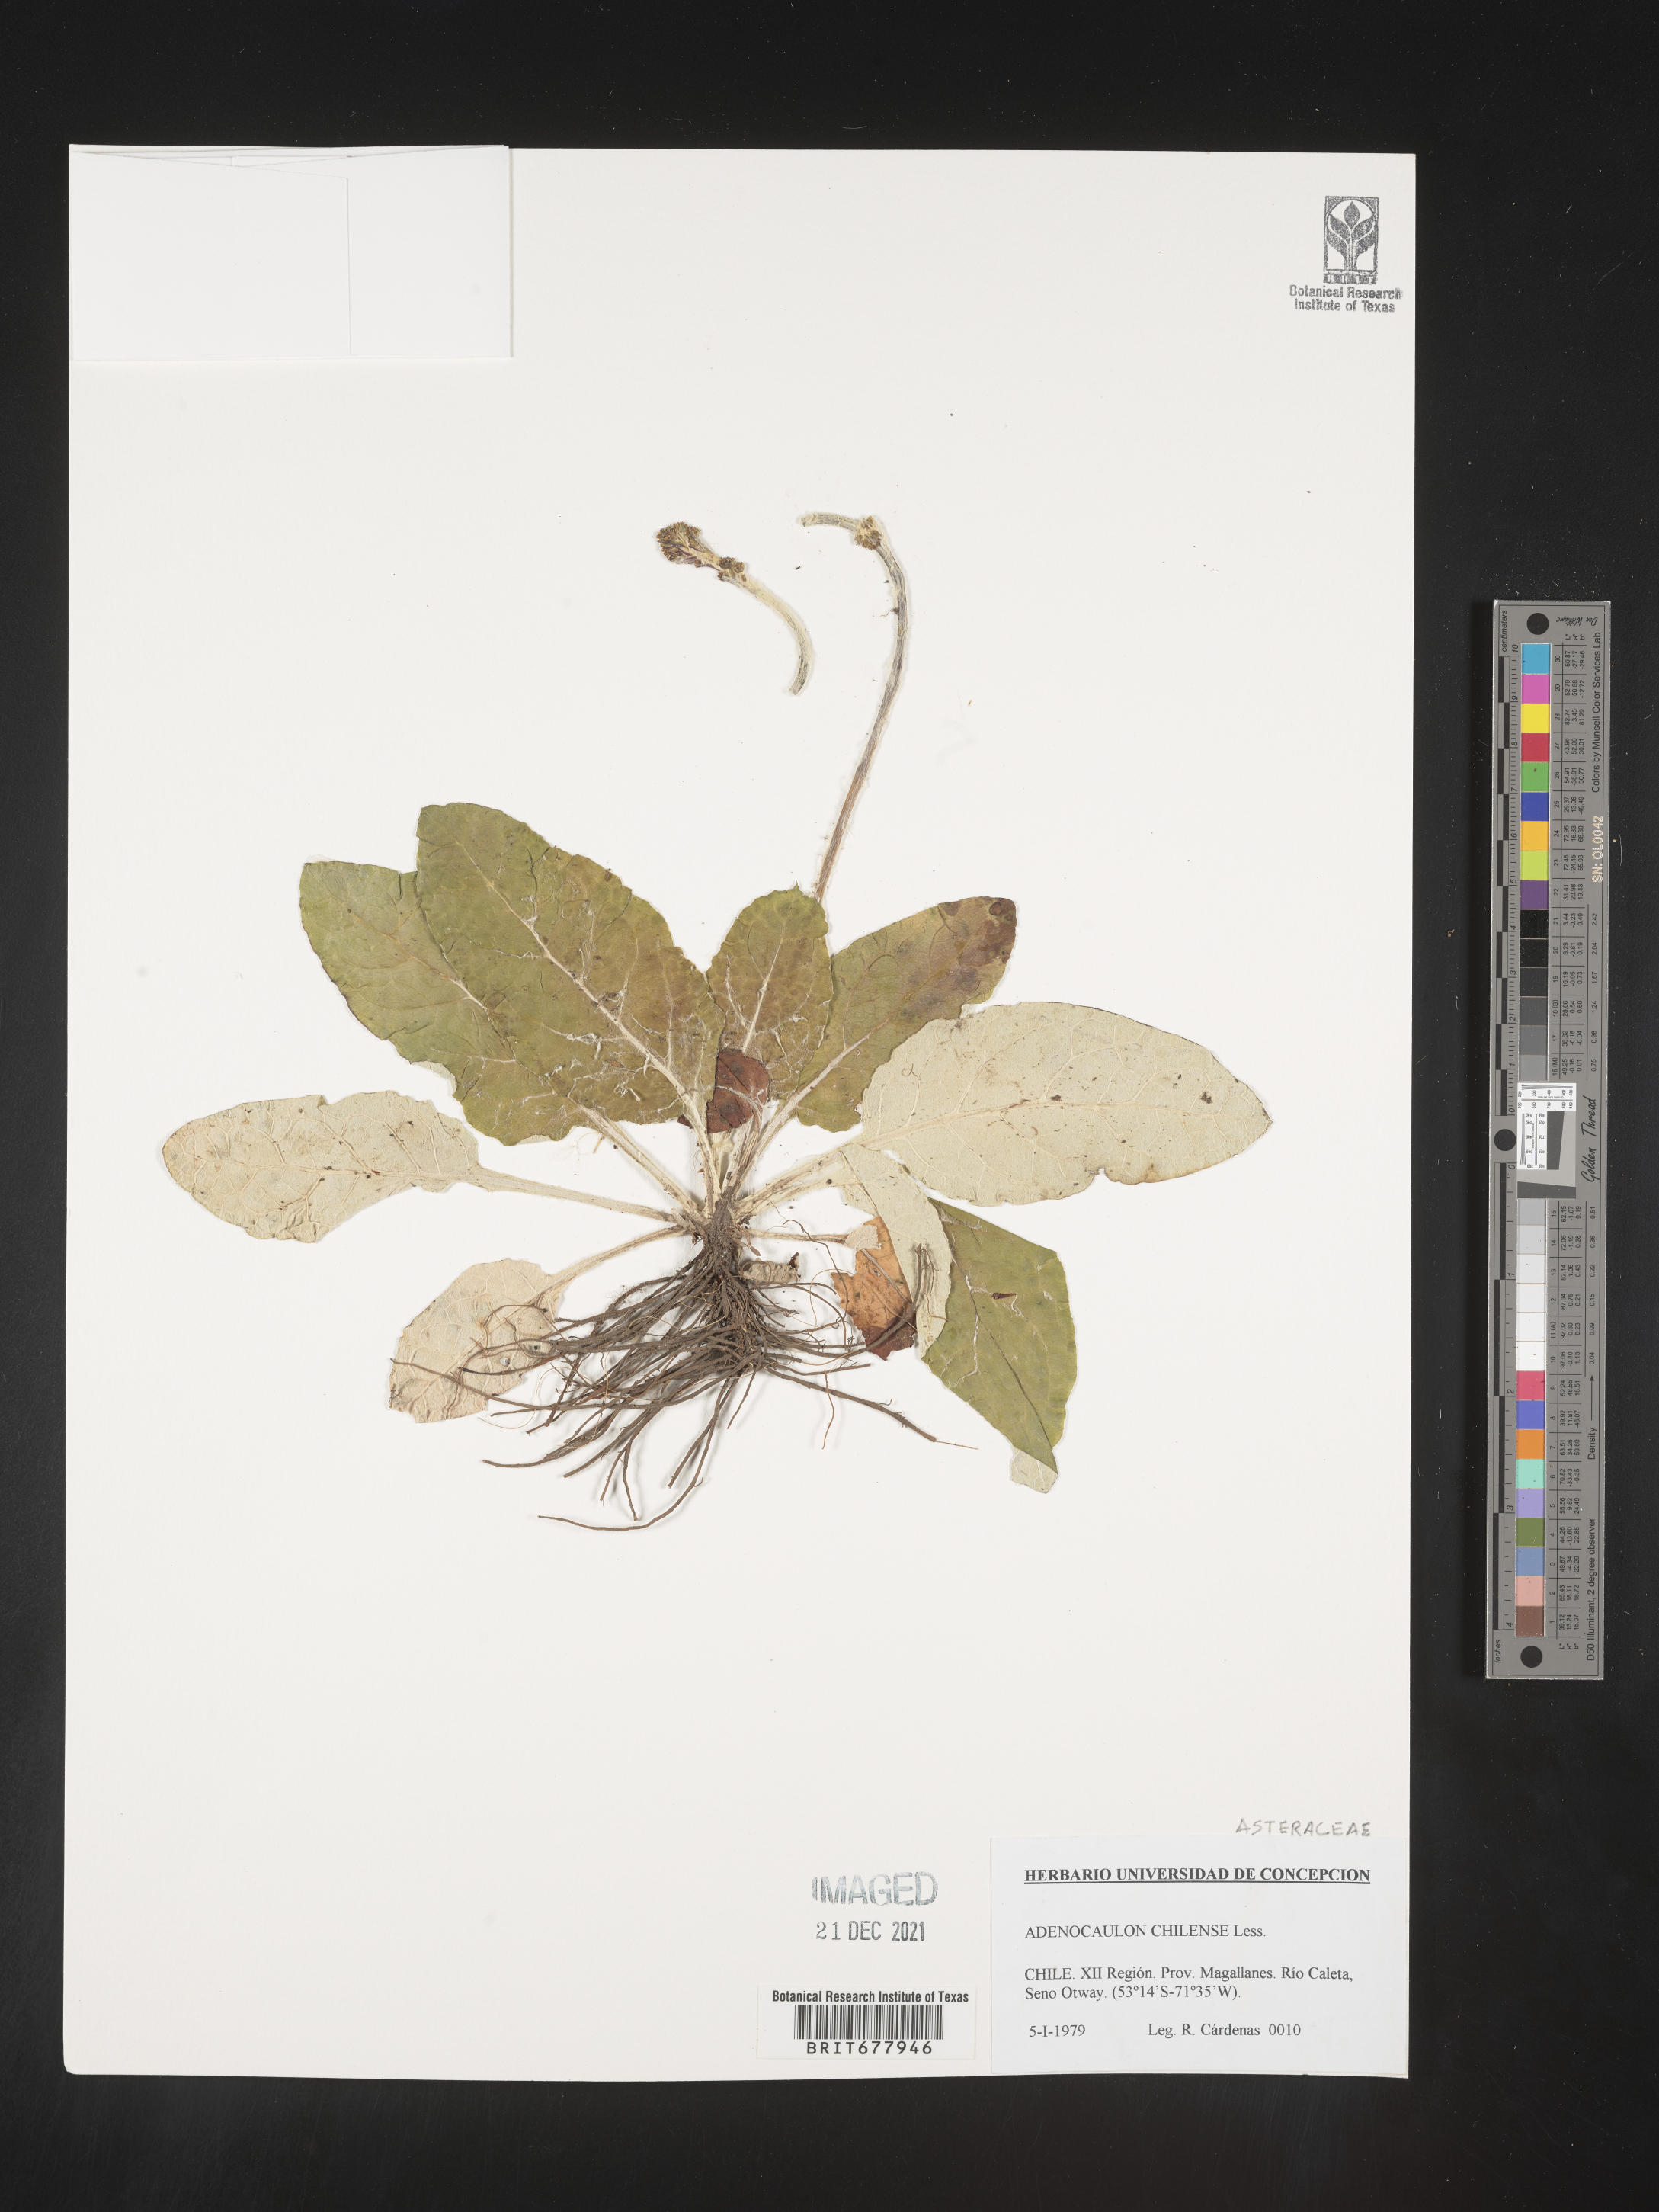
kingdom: Plantae
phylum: Tracheophyta
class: Magnoliopsida
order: Asterales
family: Asteraceae
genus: Adenocaulon
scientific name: Adenocaulon
